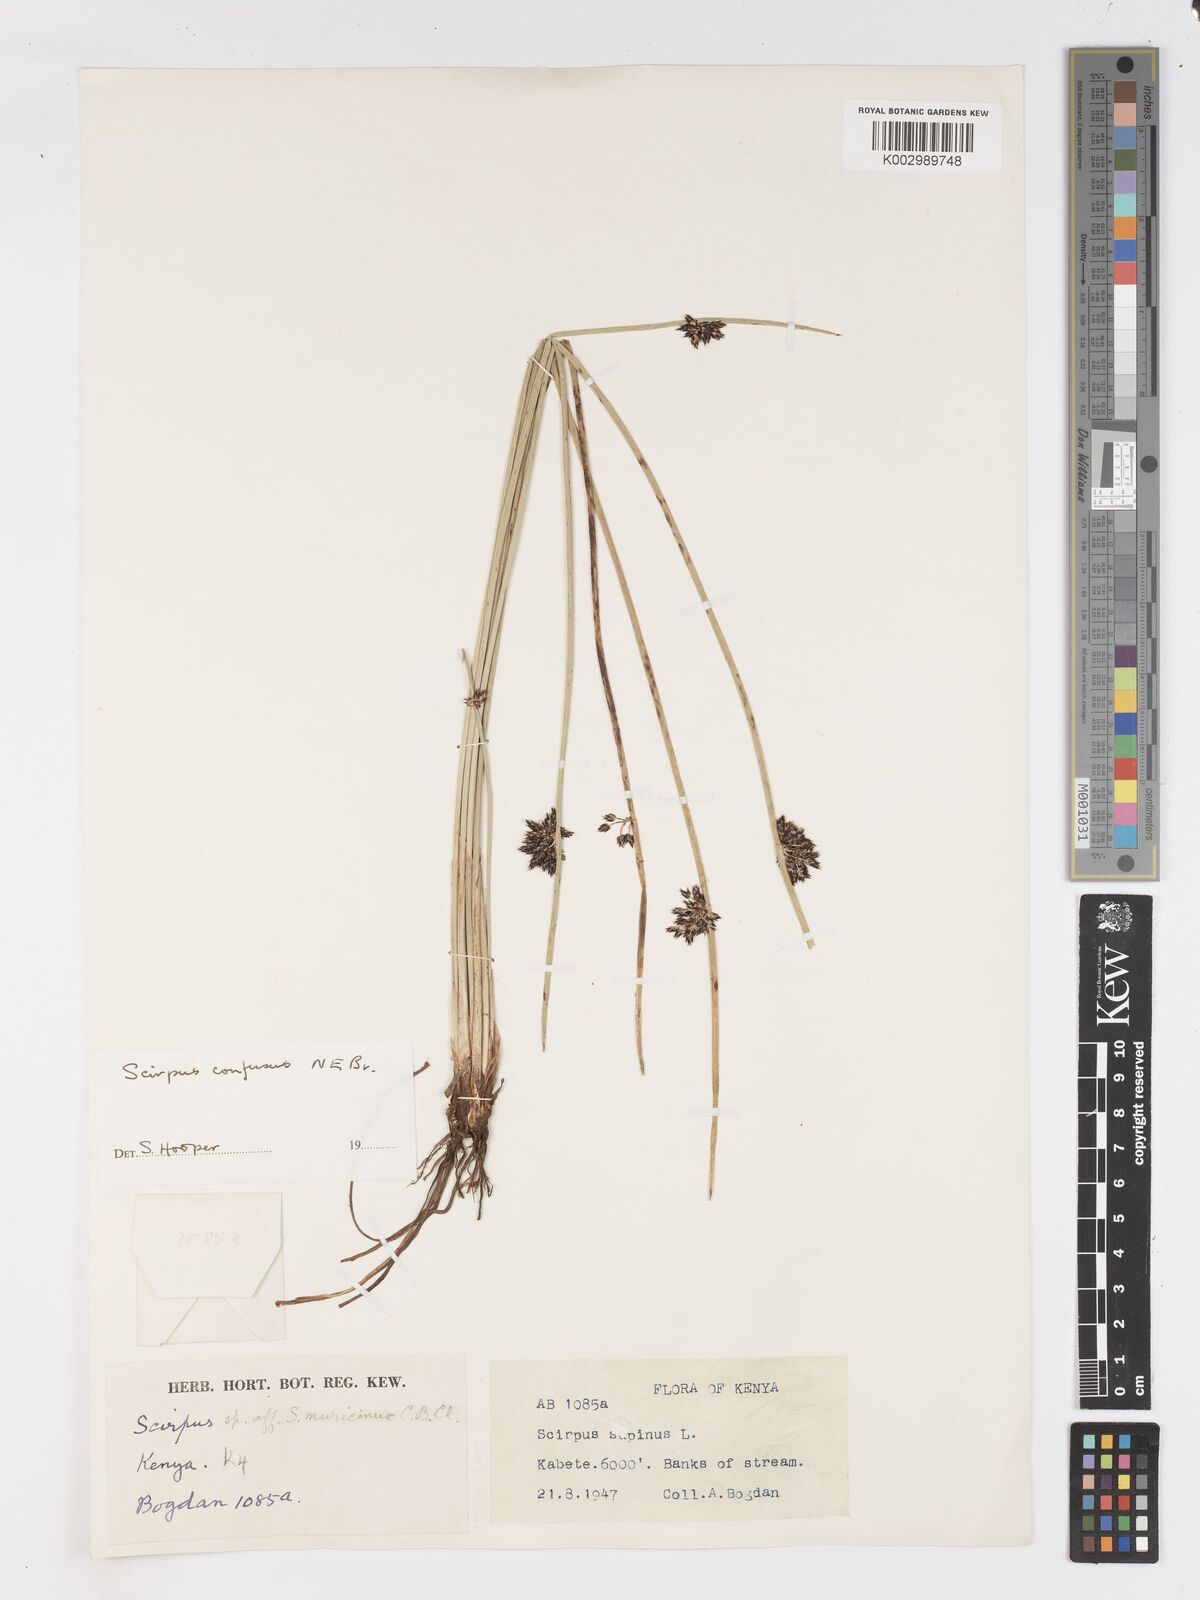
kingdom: Plantae
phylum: Tracheophyta
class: Liliopsida
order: Poales
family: Cyperaceae
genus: Schoenoplectiella
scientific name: Schoenoplectiella confusa
